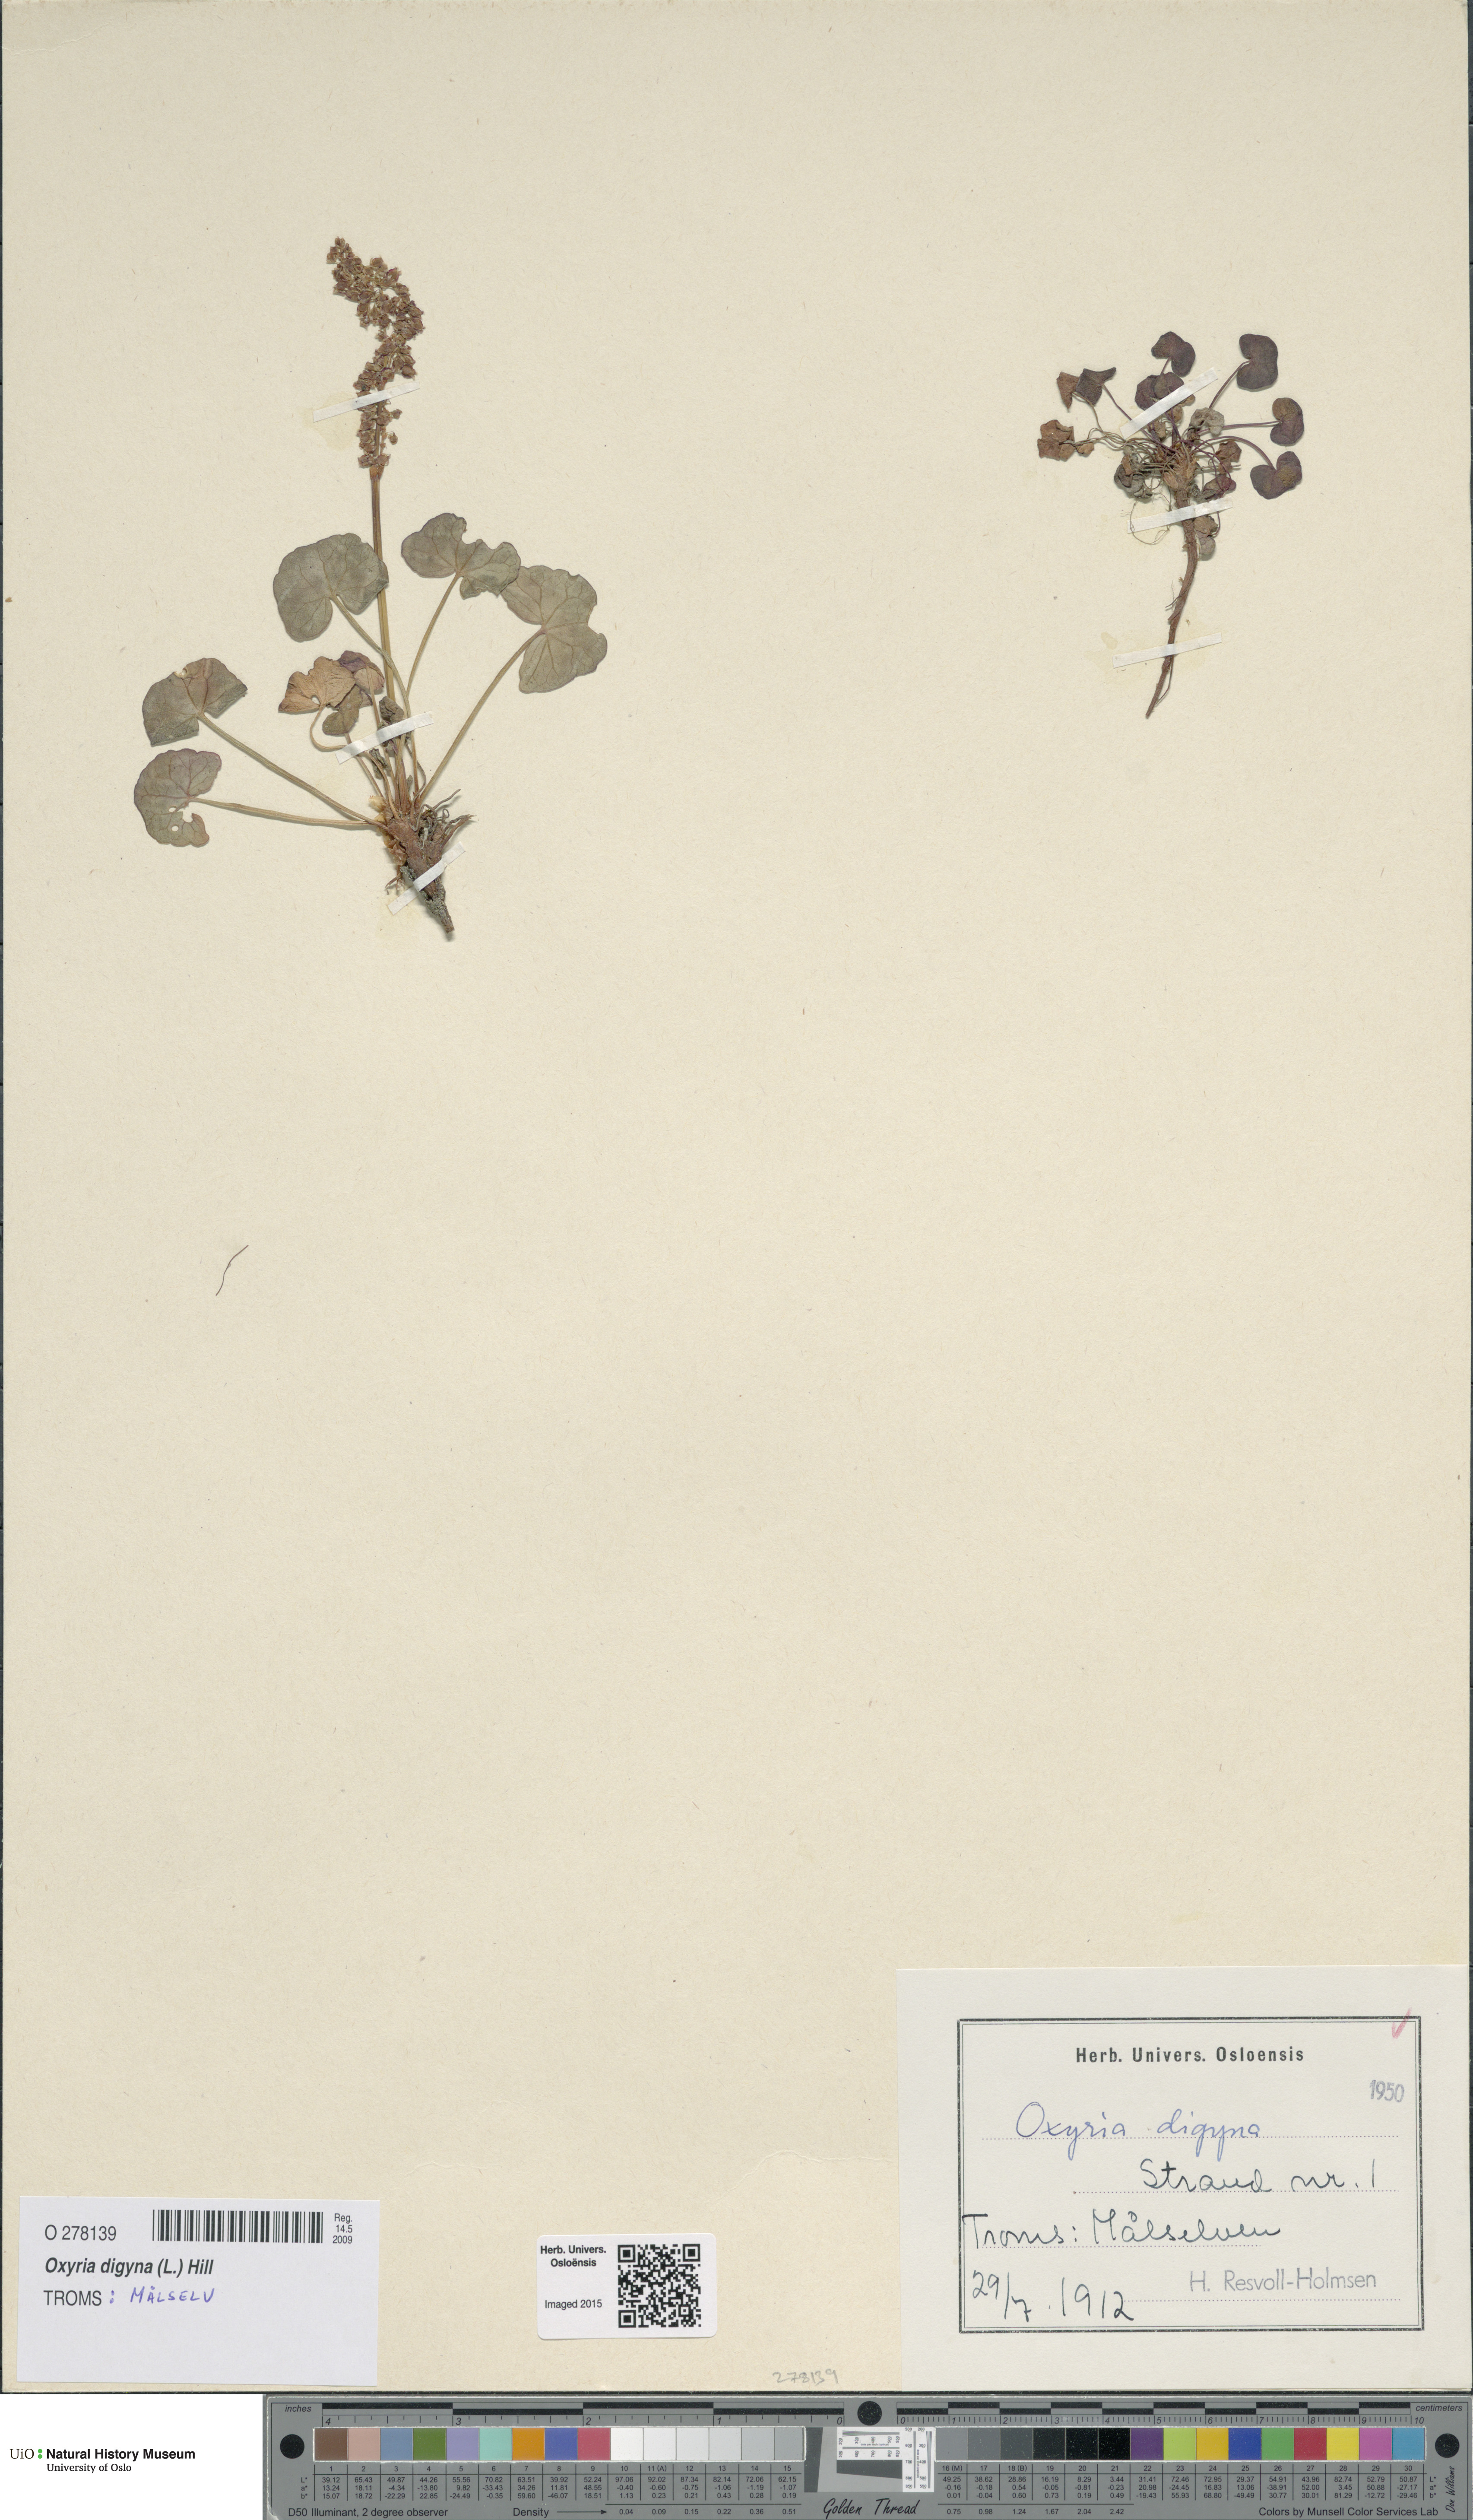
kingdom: Plantae
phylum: Tracheophyta
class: Magnoliopsida
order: Caryophyllales
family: Polygonaceae
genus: Oxyria
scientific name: Oxyria digyna
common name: Alpine mountain-sorrel
